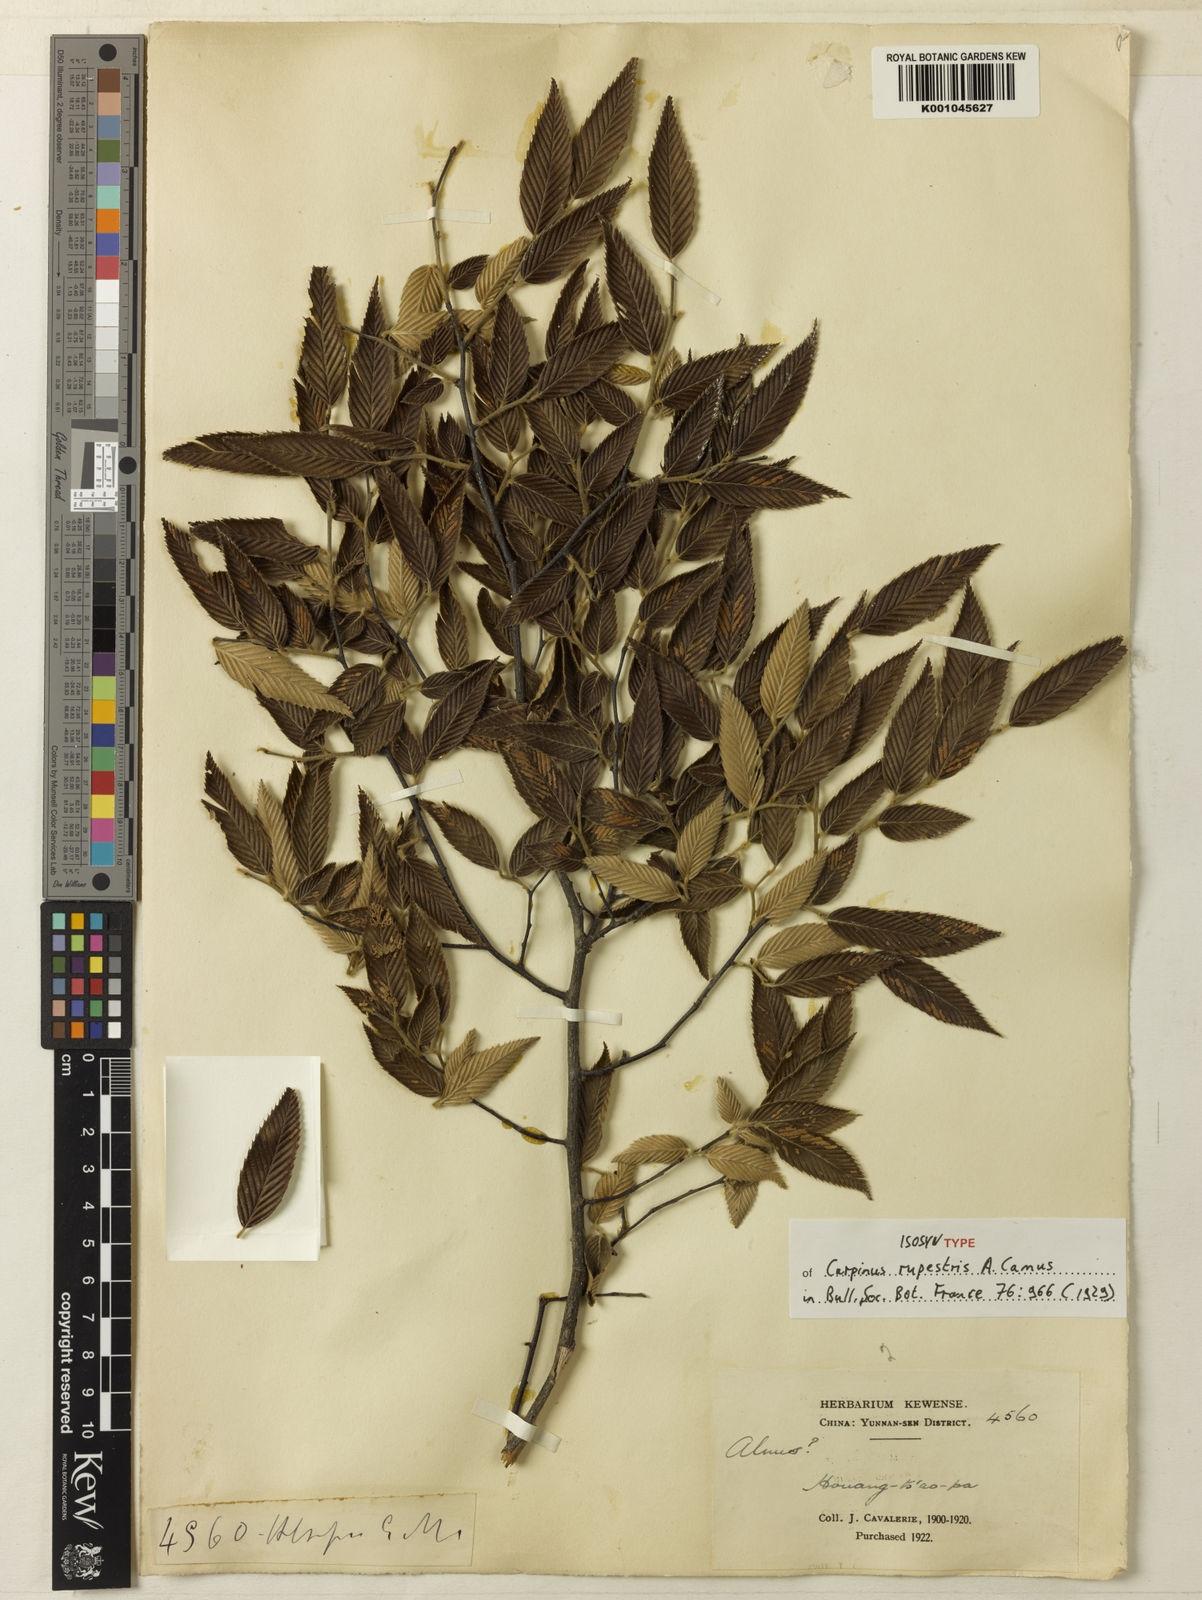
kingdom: Plantae
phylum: Tracheophyta
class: Magnoliopsida
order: Fagales
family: Betulaceae
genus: Carpinus
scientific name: Carpinus rupestris
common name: Rock brush
